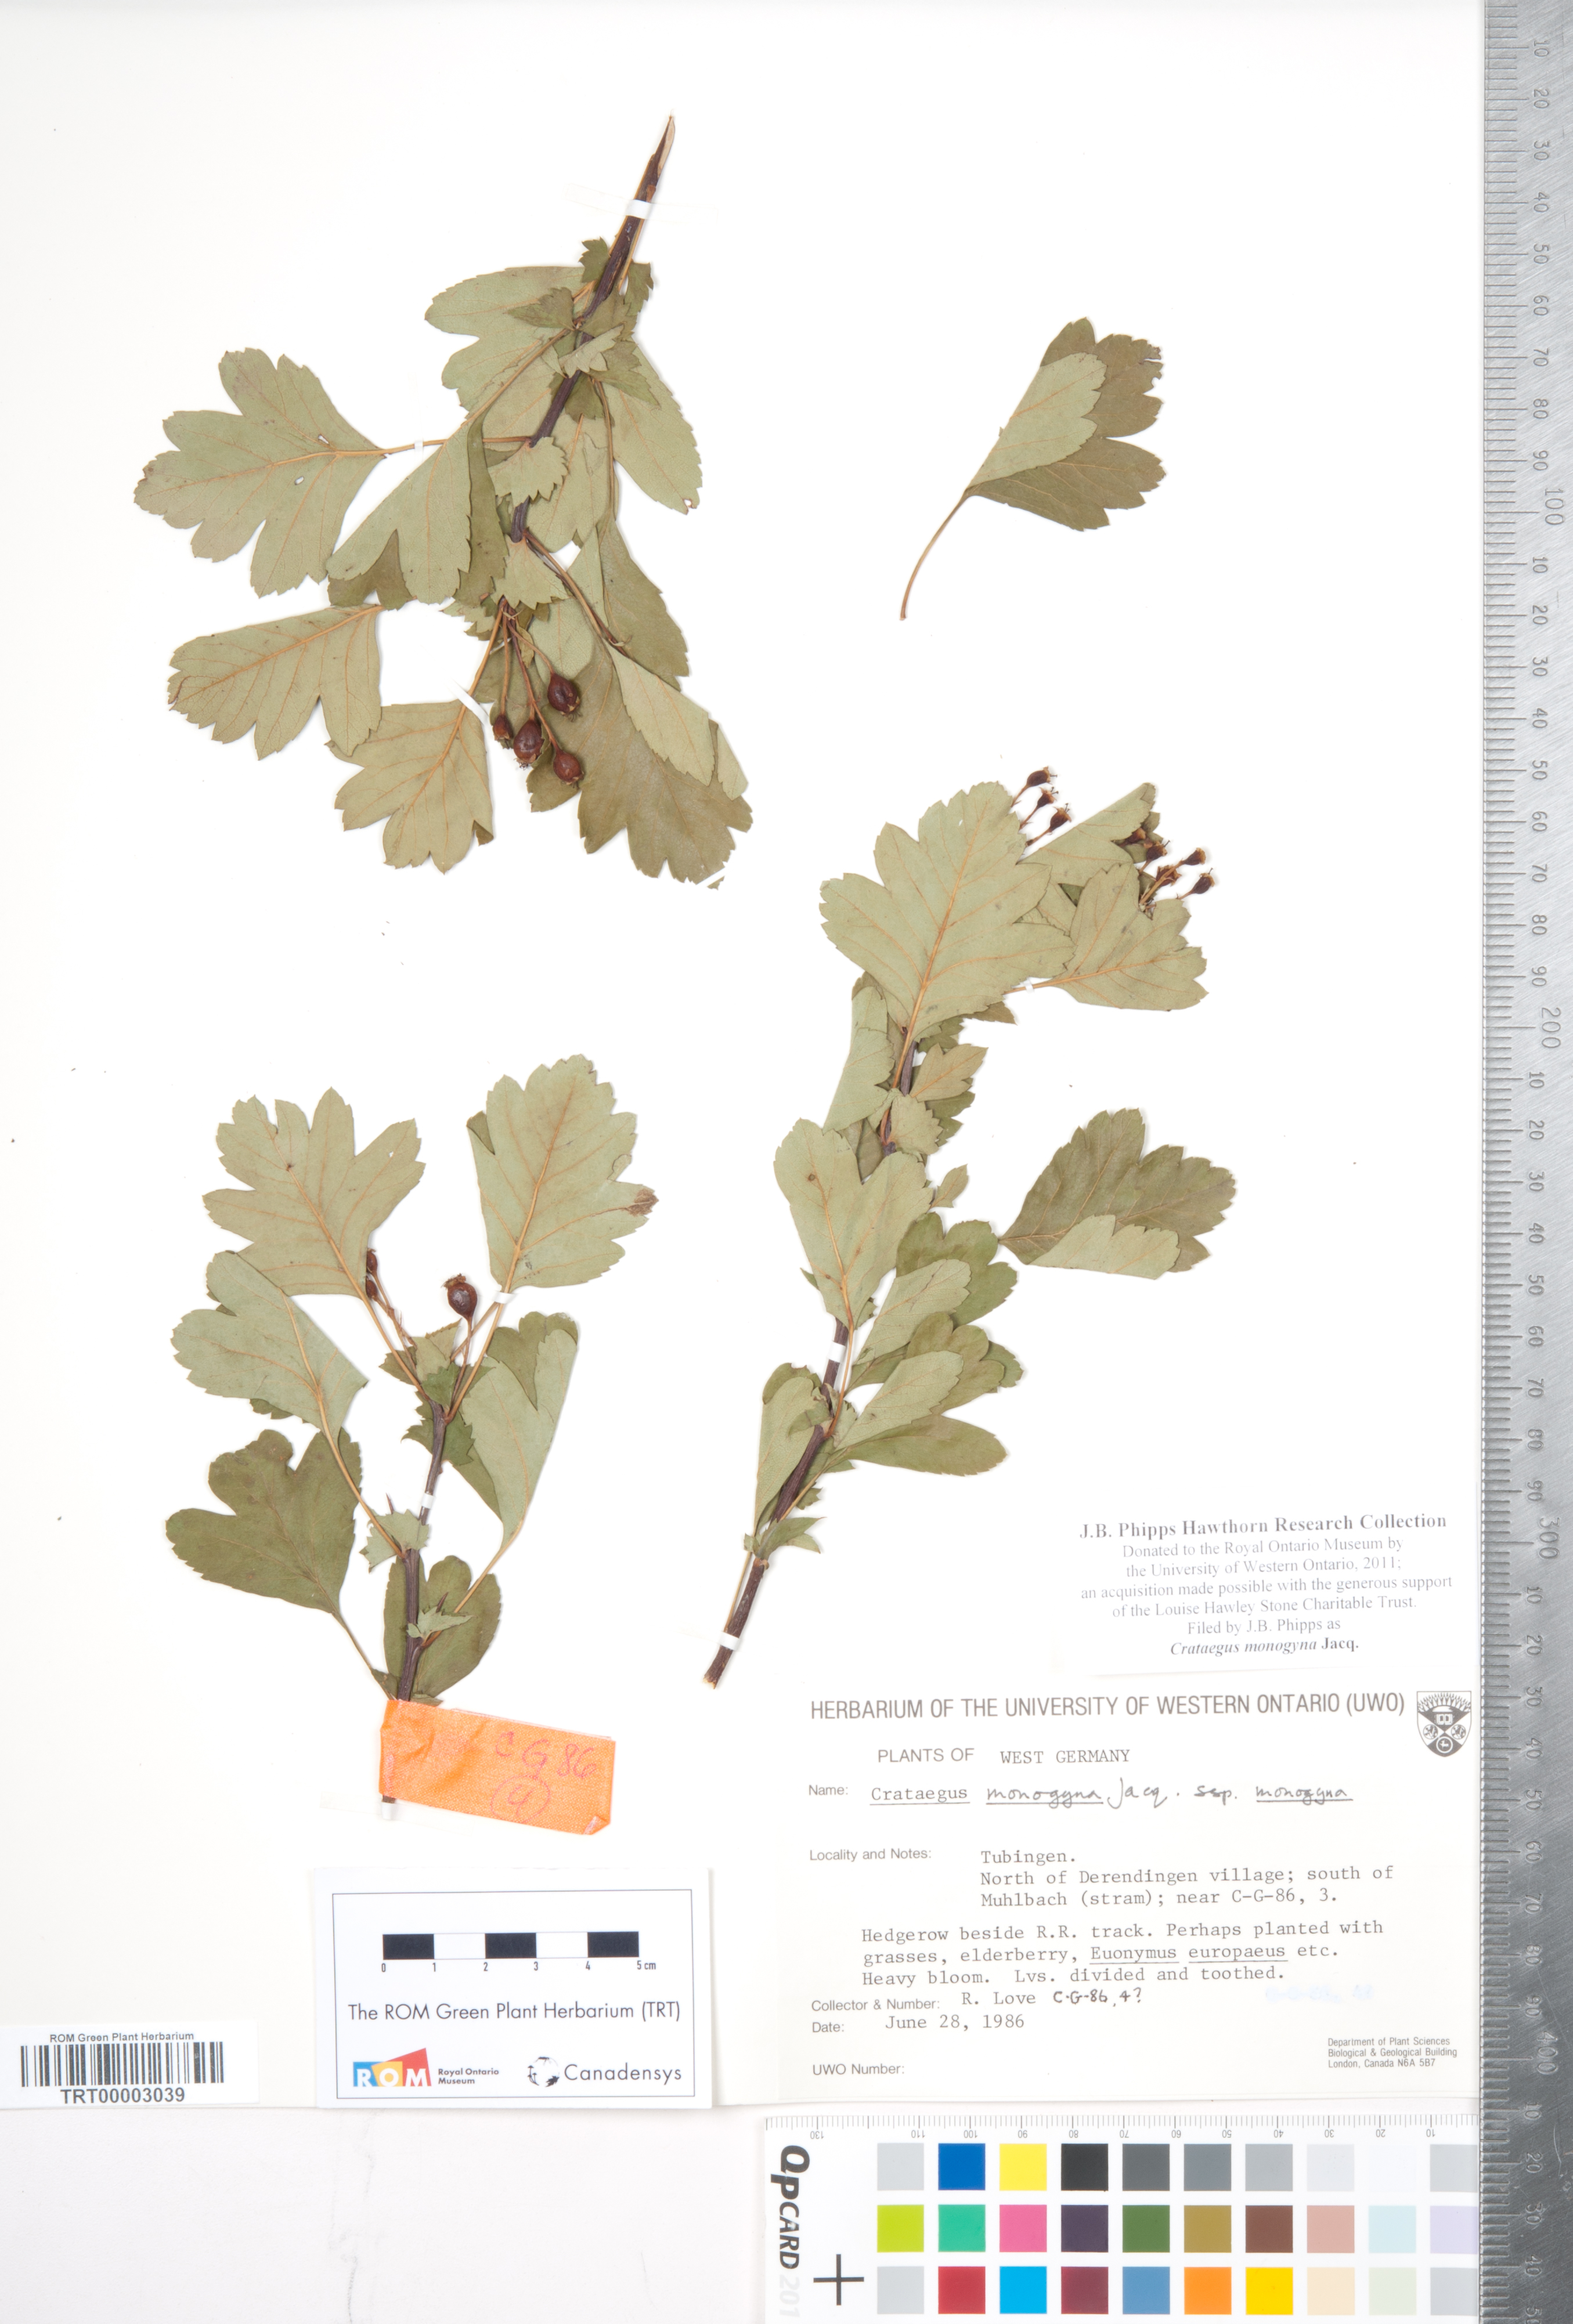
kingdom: Plantae
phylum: Tracheophyta
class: Magnoliopsida
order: Rosales
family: Rosaceae
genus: Crataegus
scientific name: Crataegus monogyna
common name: Hawthorn
